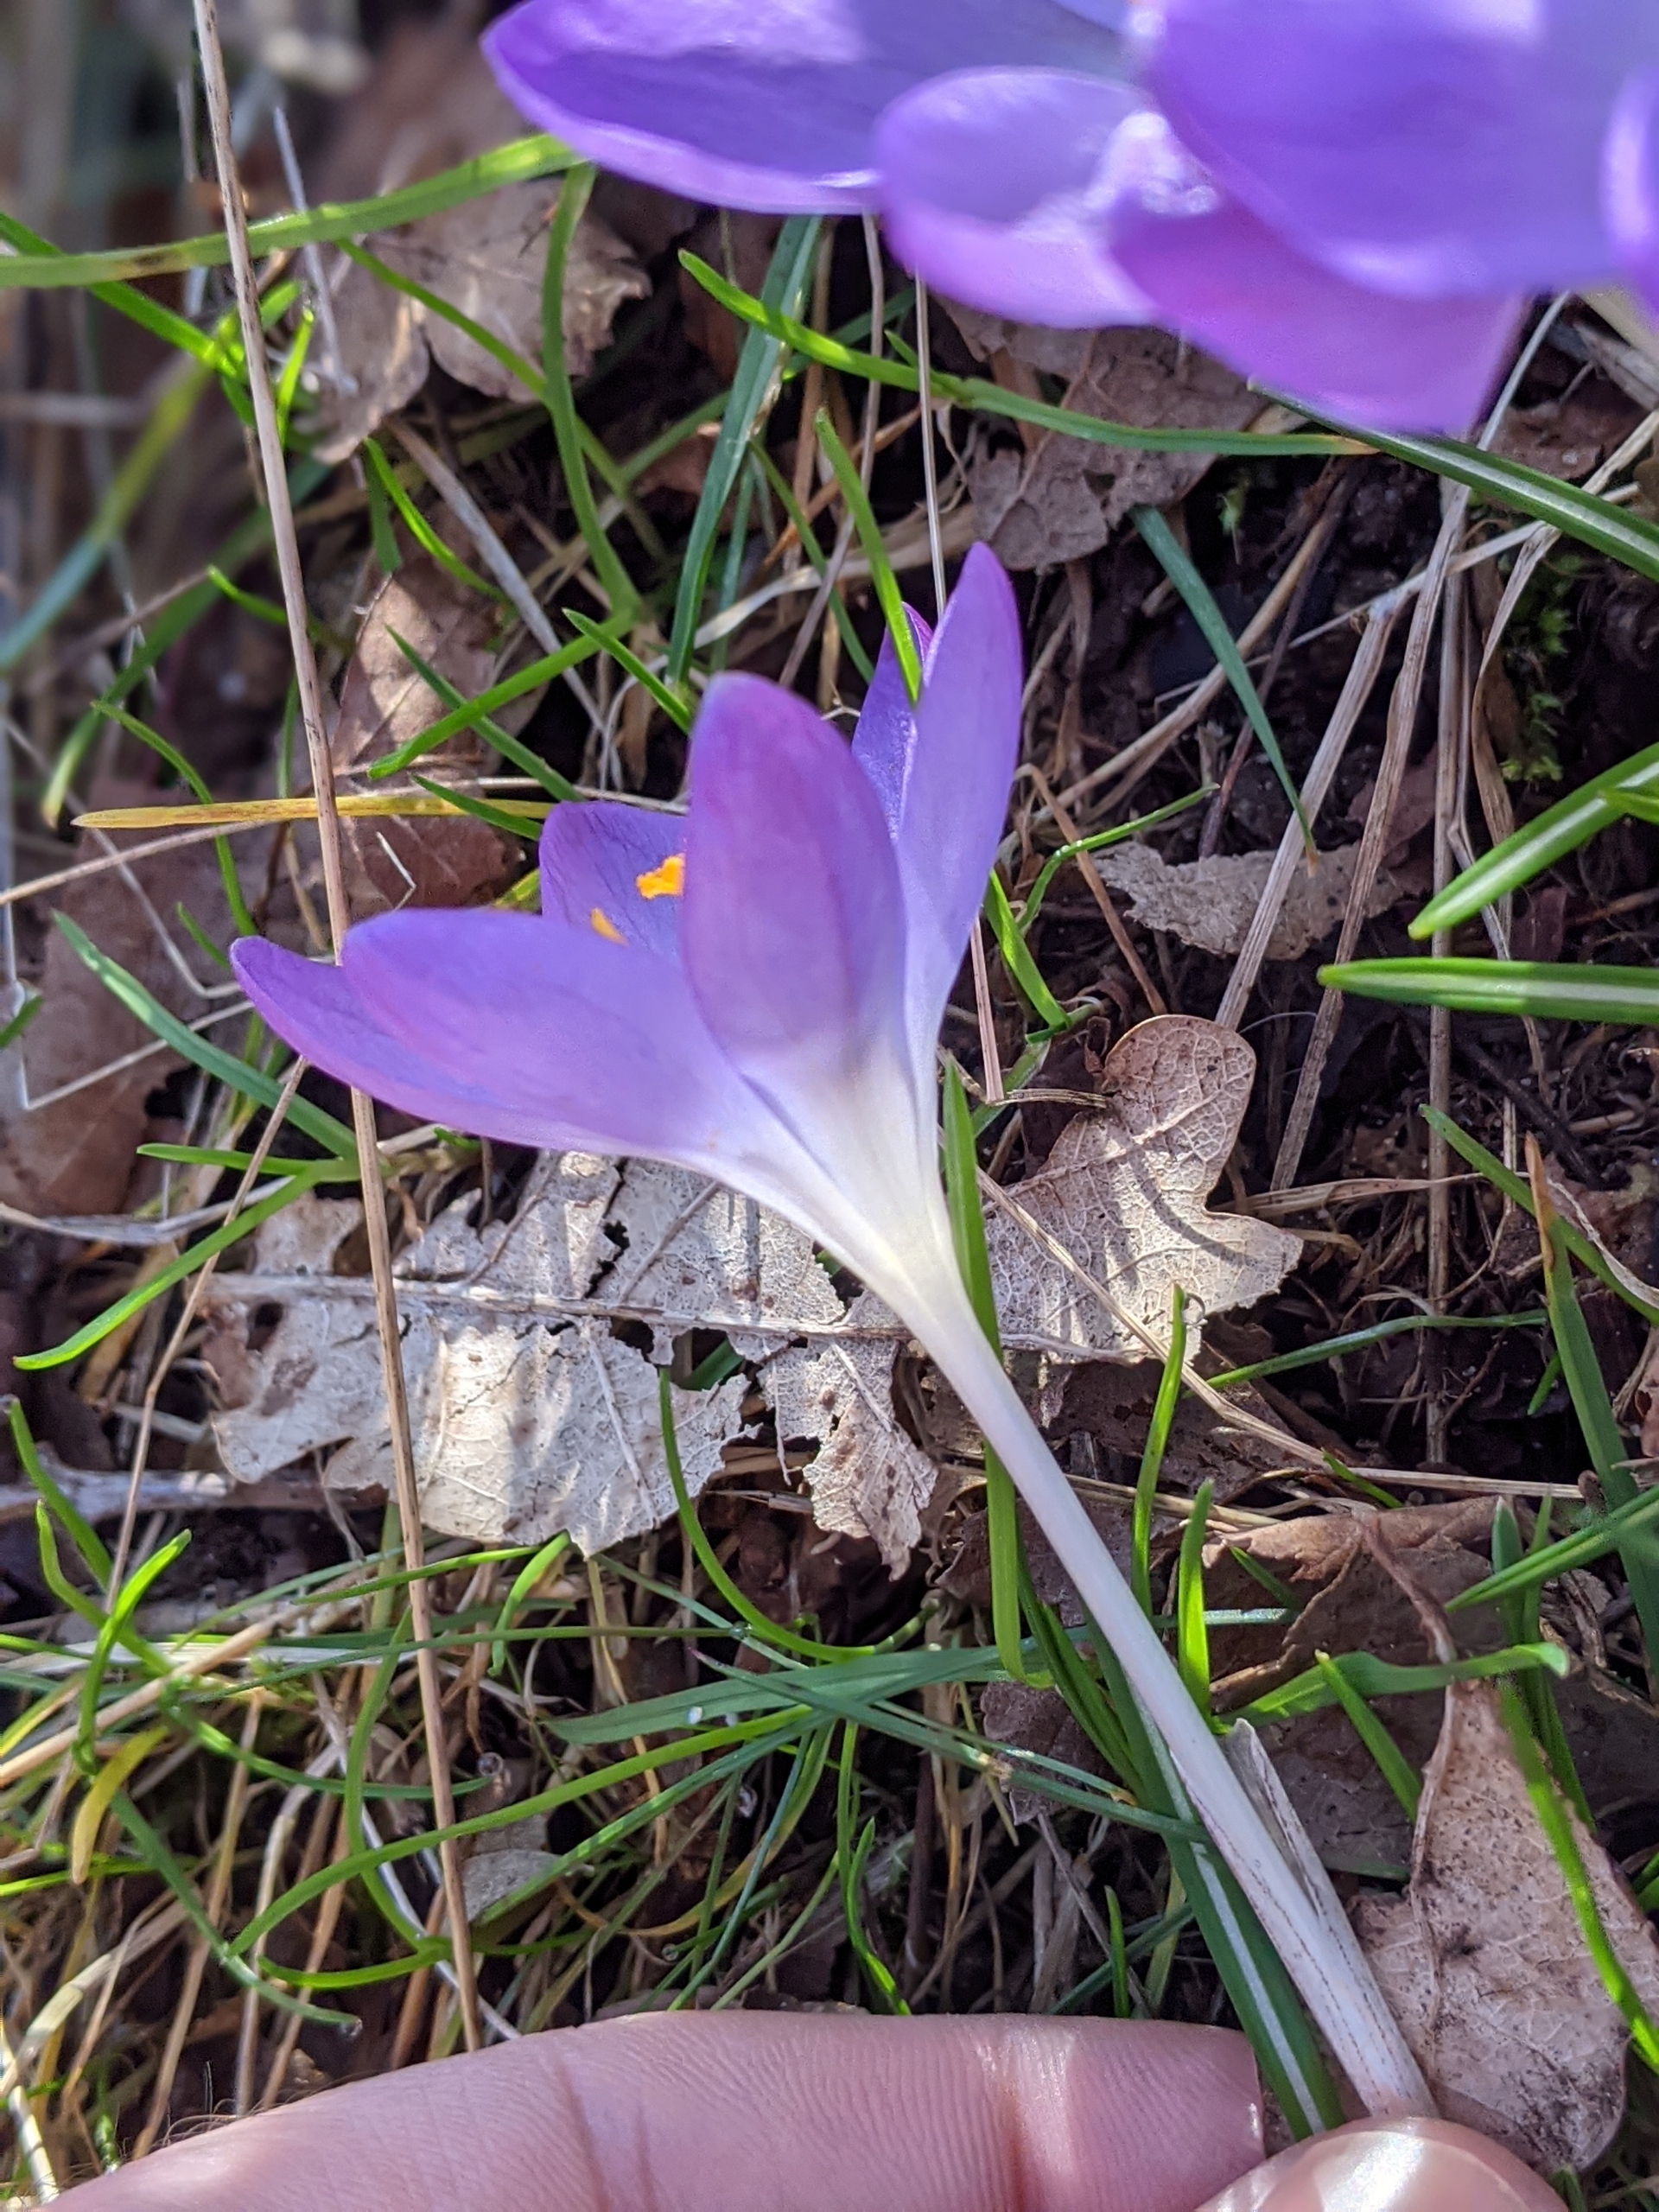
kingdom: Plantae
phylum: Tracheophyta
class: Liliopsida
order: Asparagales
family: Iridaceae
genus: Crocus
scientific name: Crocus vernus
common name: Vår-krokus
